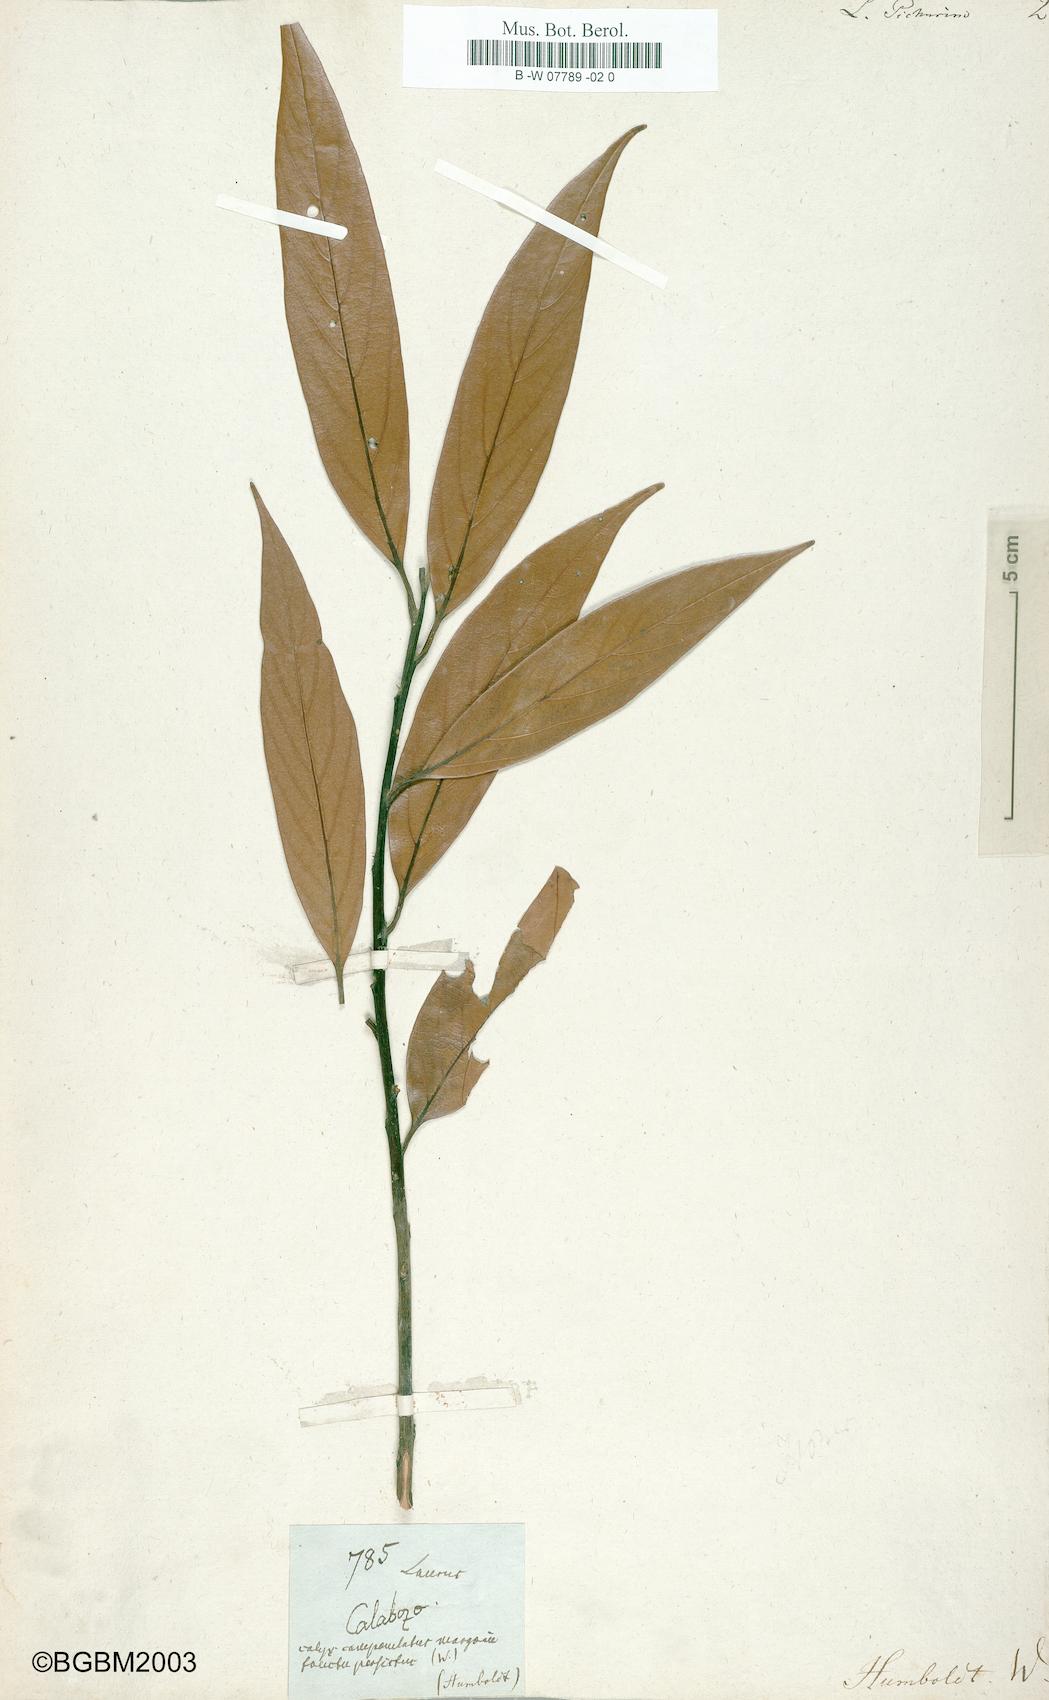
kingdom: Plantae
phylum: Tracheophyta
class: Magnoliopsida
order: Laurales
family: Lauraceae
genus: Nectandra
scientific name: Nectandra pichurim
